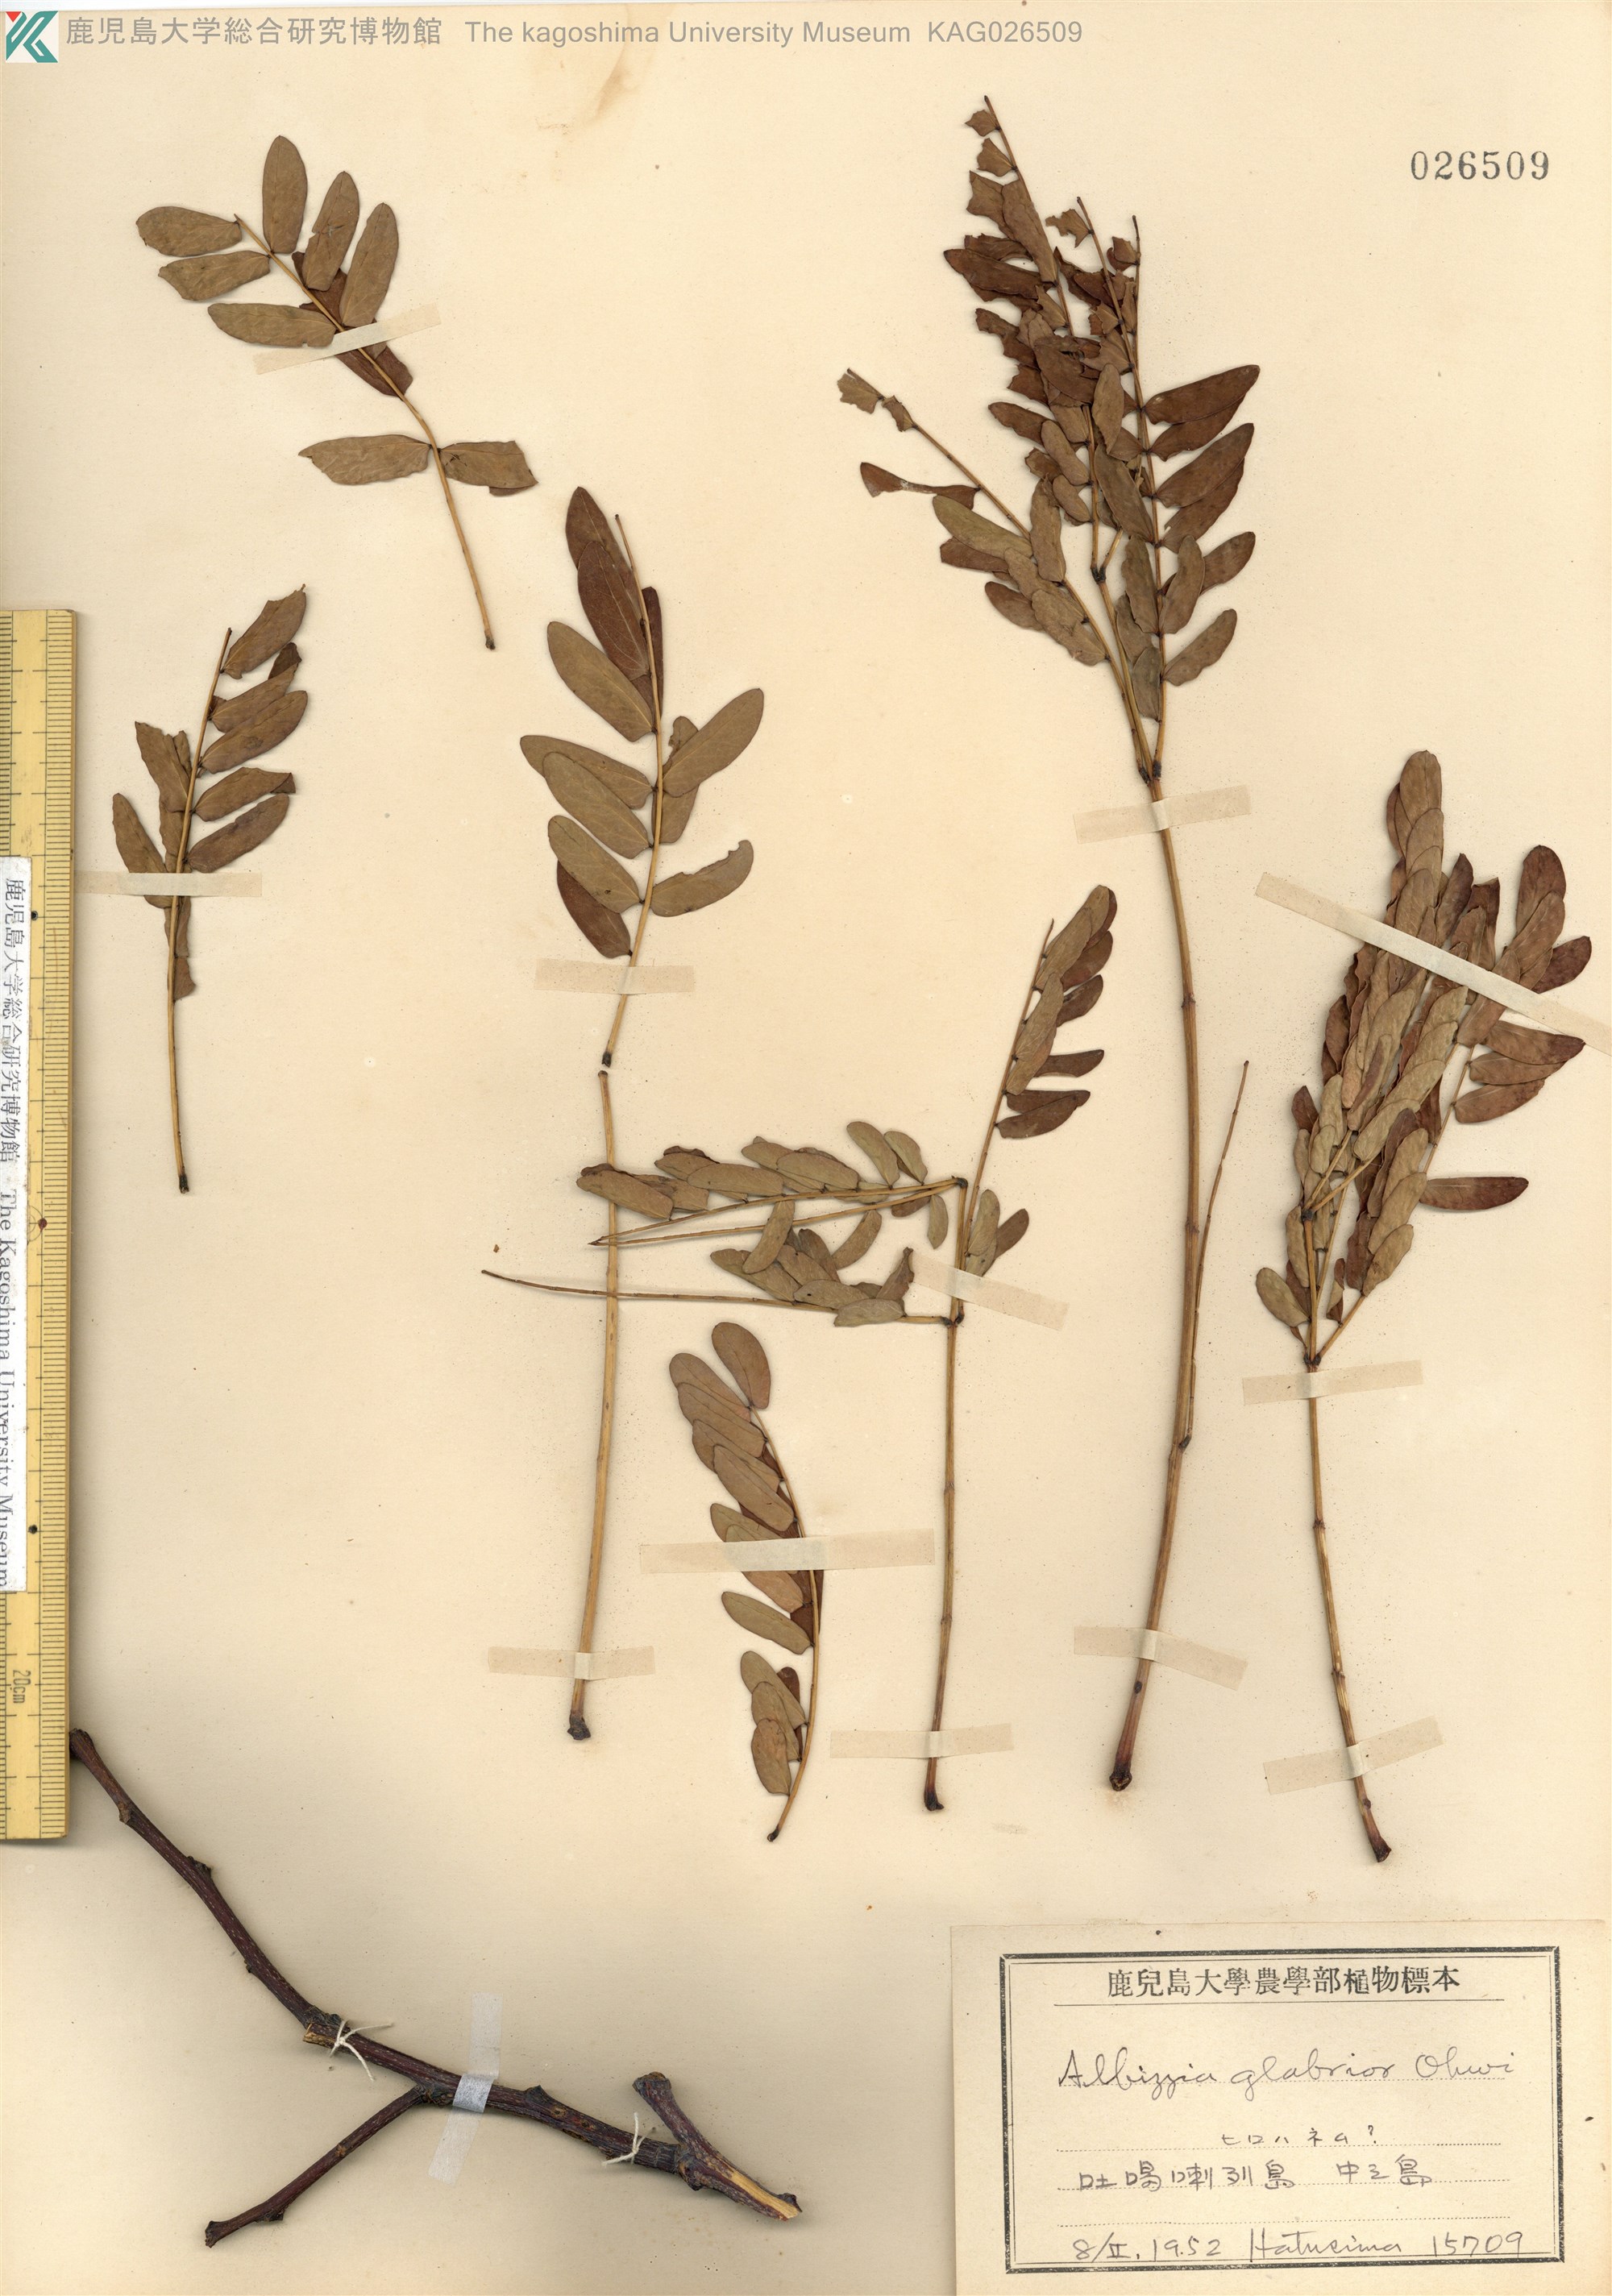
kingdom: Plantae
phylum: Tracheophyta
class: Magnoliopsida
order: Fabales
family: Fabaceae
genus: Albizia
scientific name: Albizia kalkora
